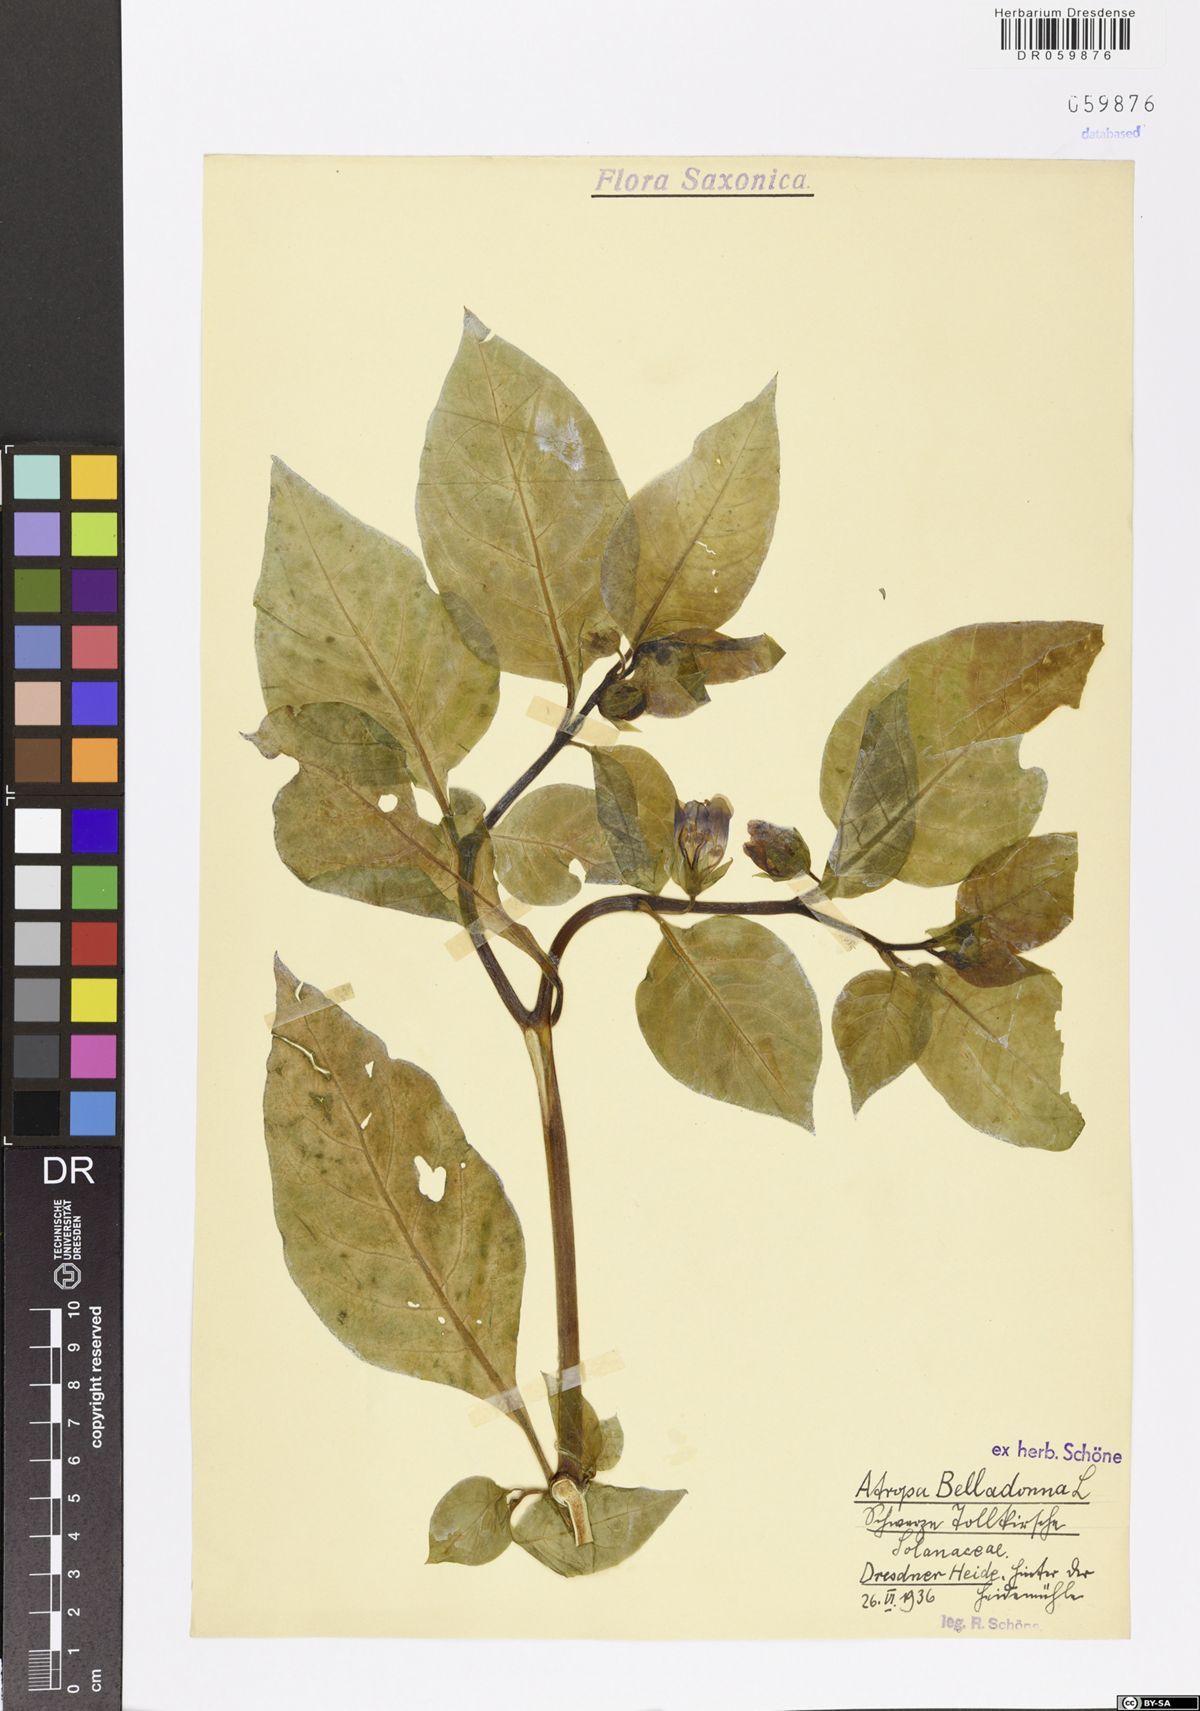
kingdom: Plantae
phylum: Tracheophyta
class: Magnoliopsida
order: Solanales
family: Solanaceae
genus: Atropa
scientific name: Atropa belladonna
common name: Deadly nightshade
